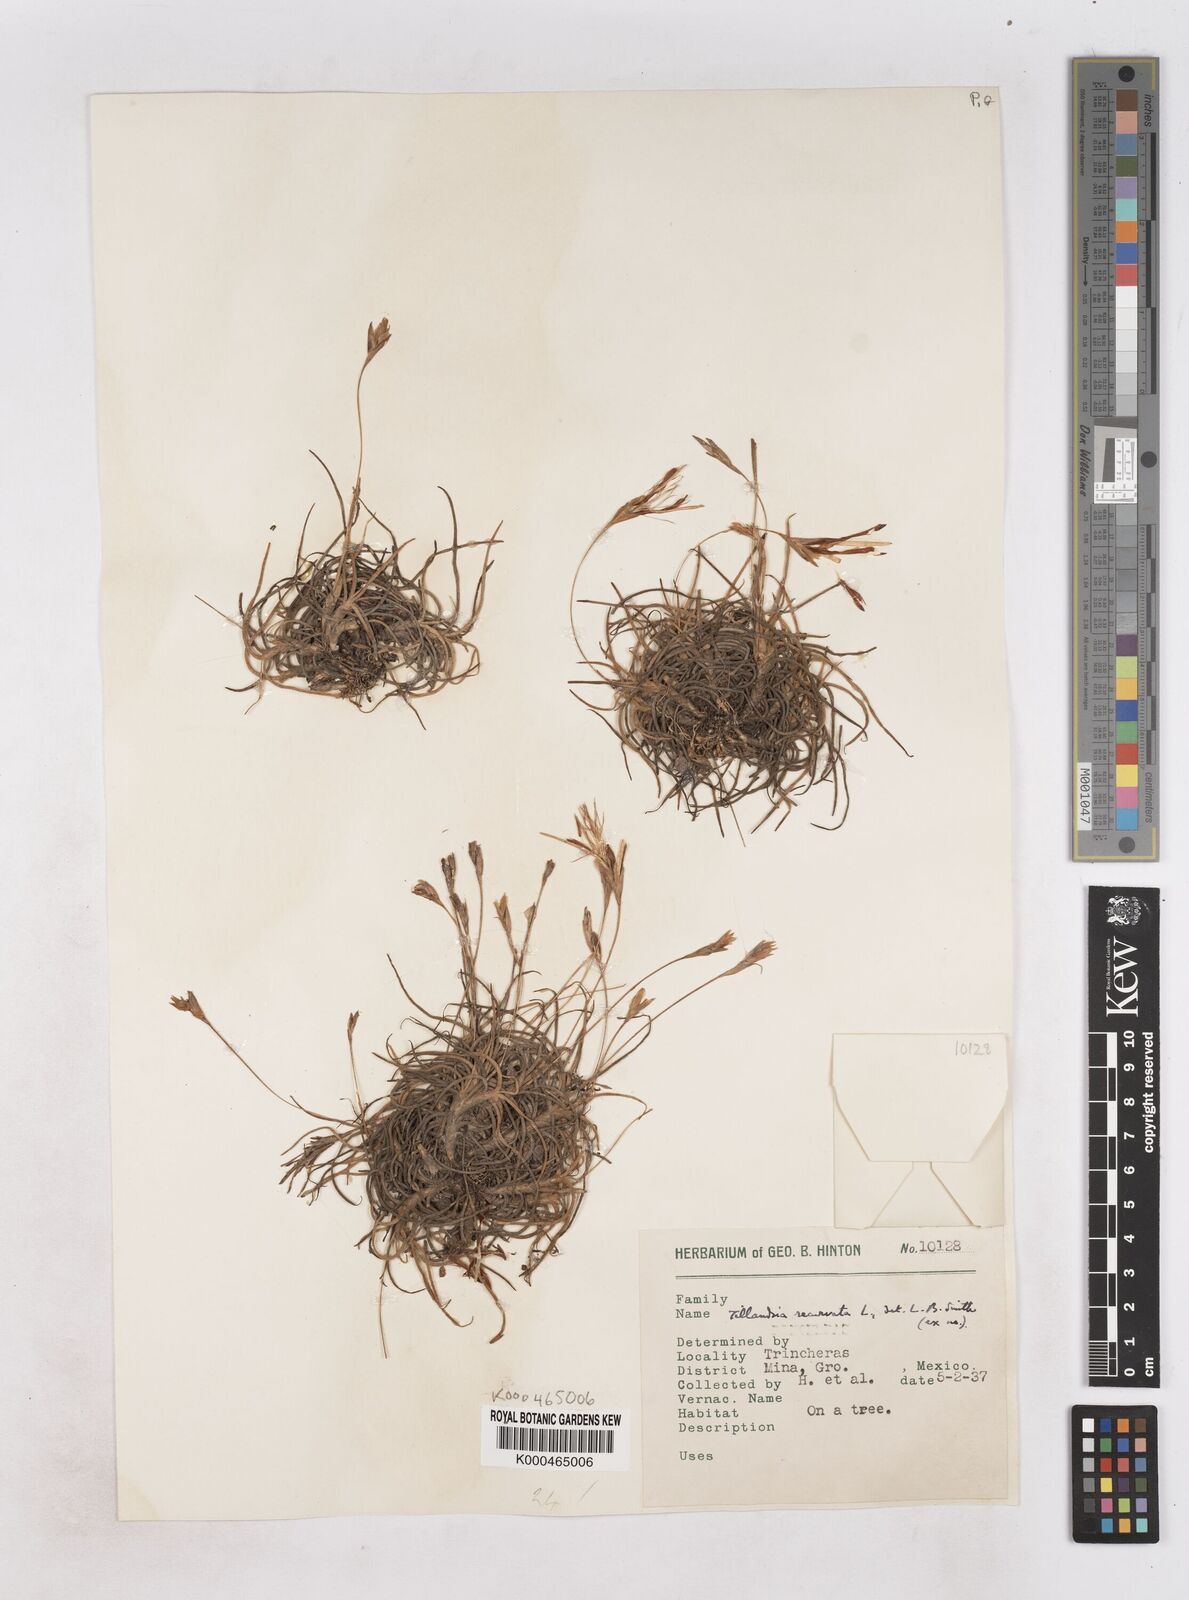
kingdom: Plantae
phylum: Tracheophyta
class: Liliopsida
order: Poales
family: Bromeliaceae
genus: Tillandsia
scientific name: Tillandsia recurvata
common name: Small ballmoss
